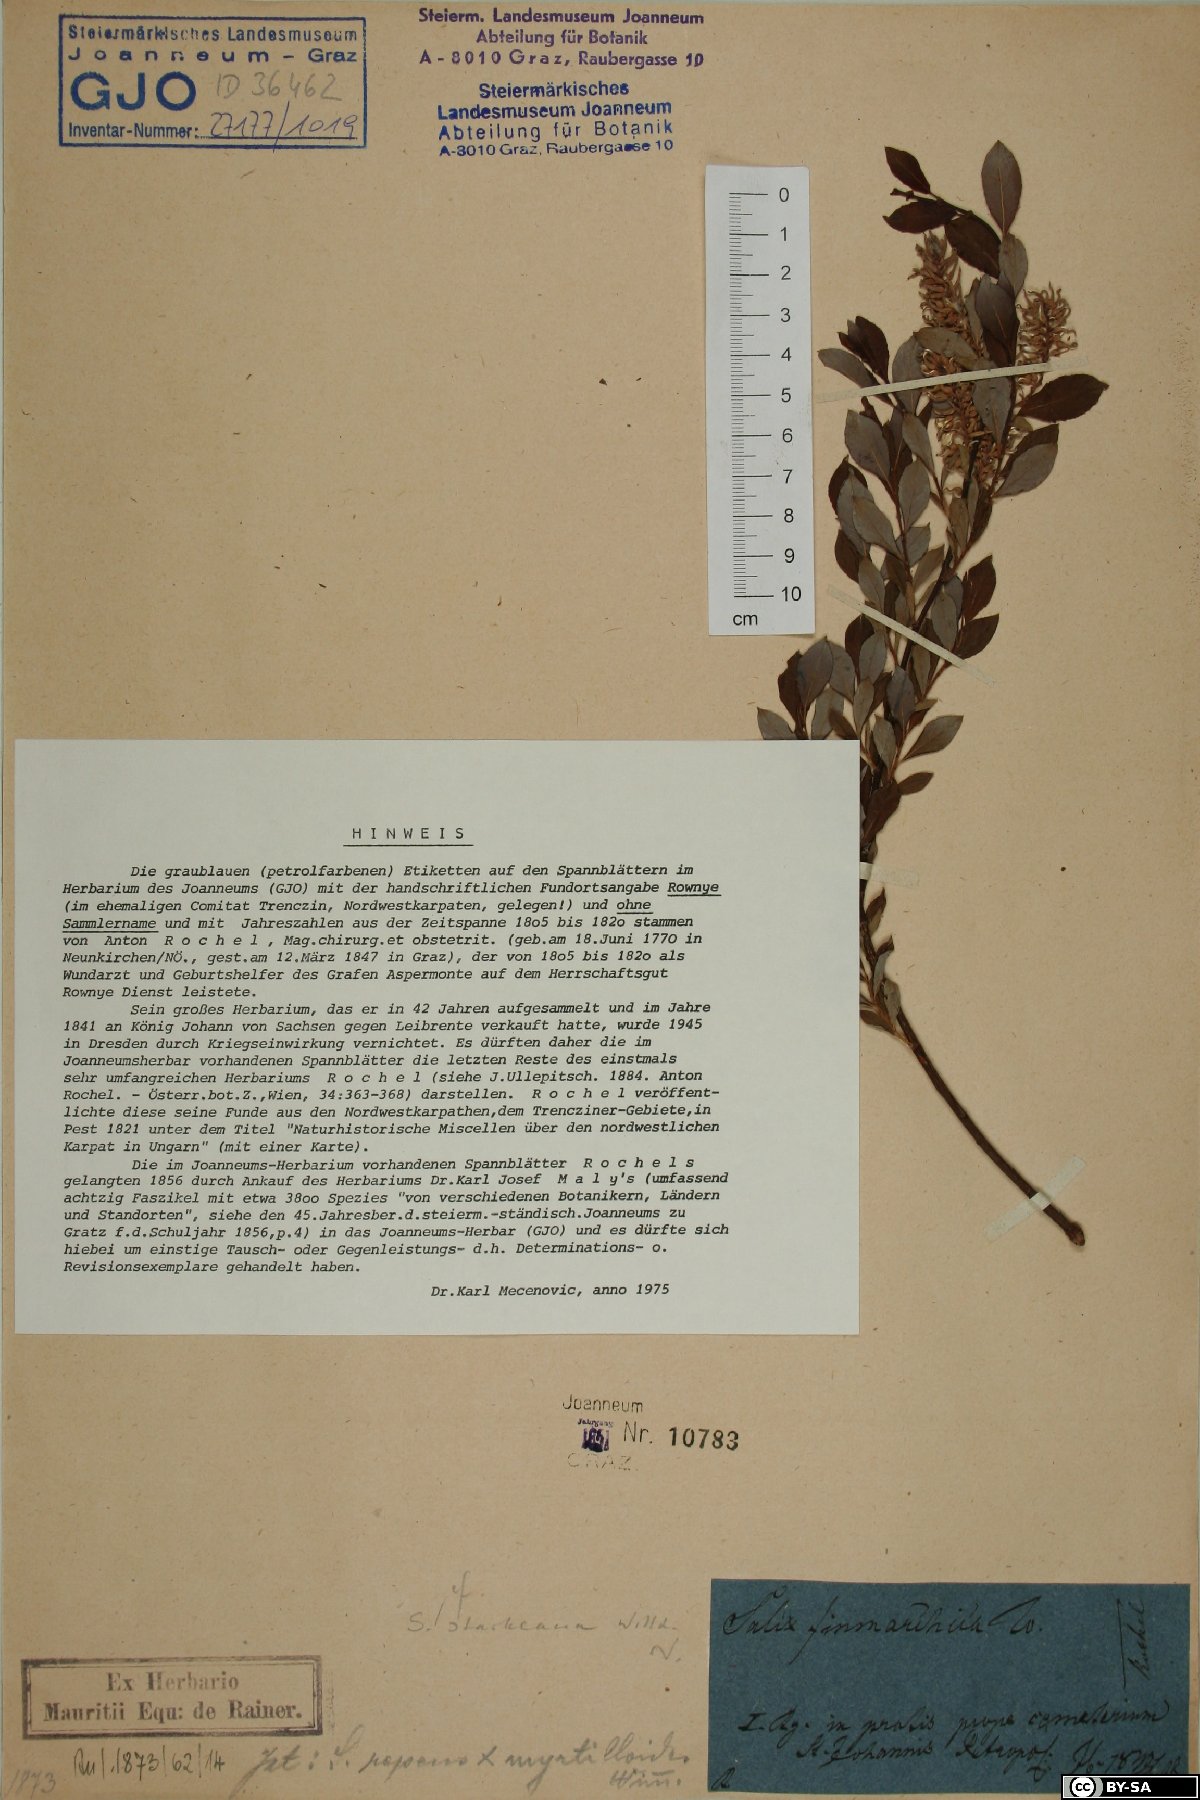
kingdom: Plantae
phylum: Tracheophyta
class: Magnoliopsida
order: Malpighiales
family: Salicaceae
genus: Salix
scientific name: Salix starkeana
